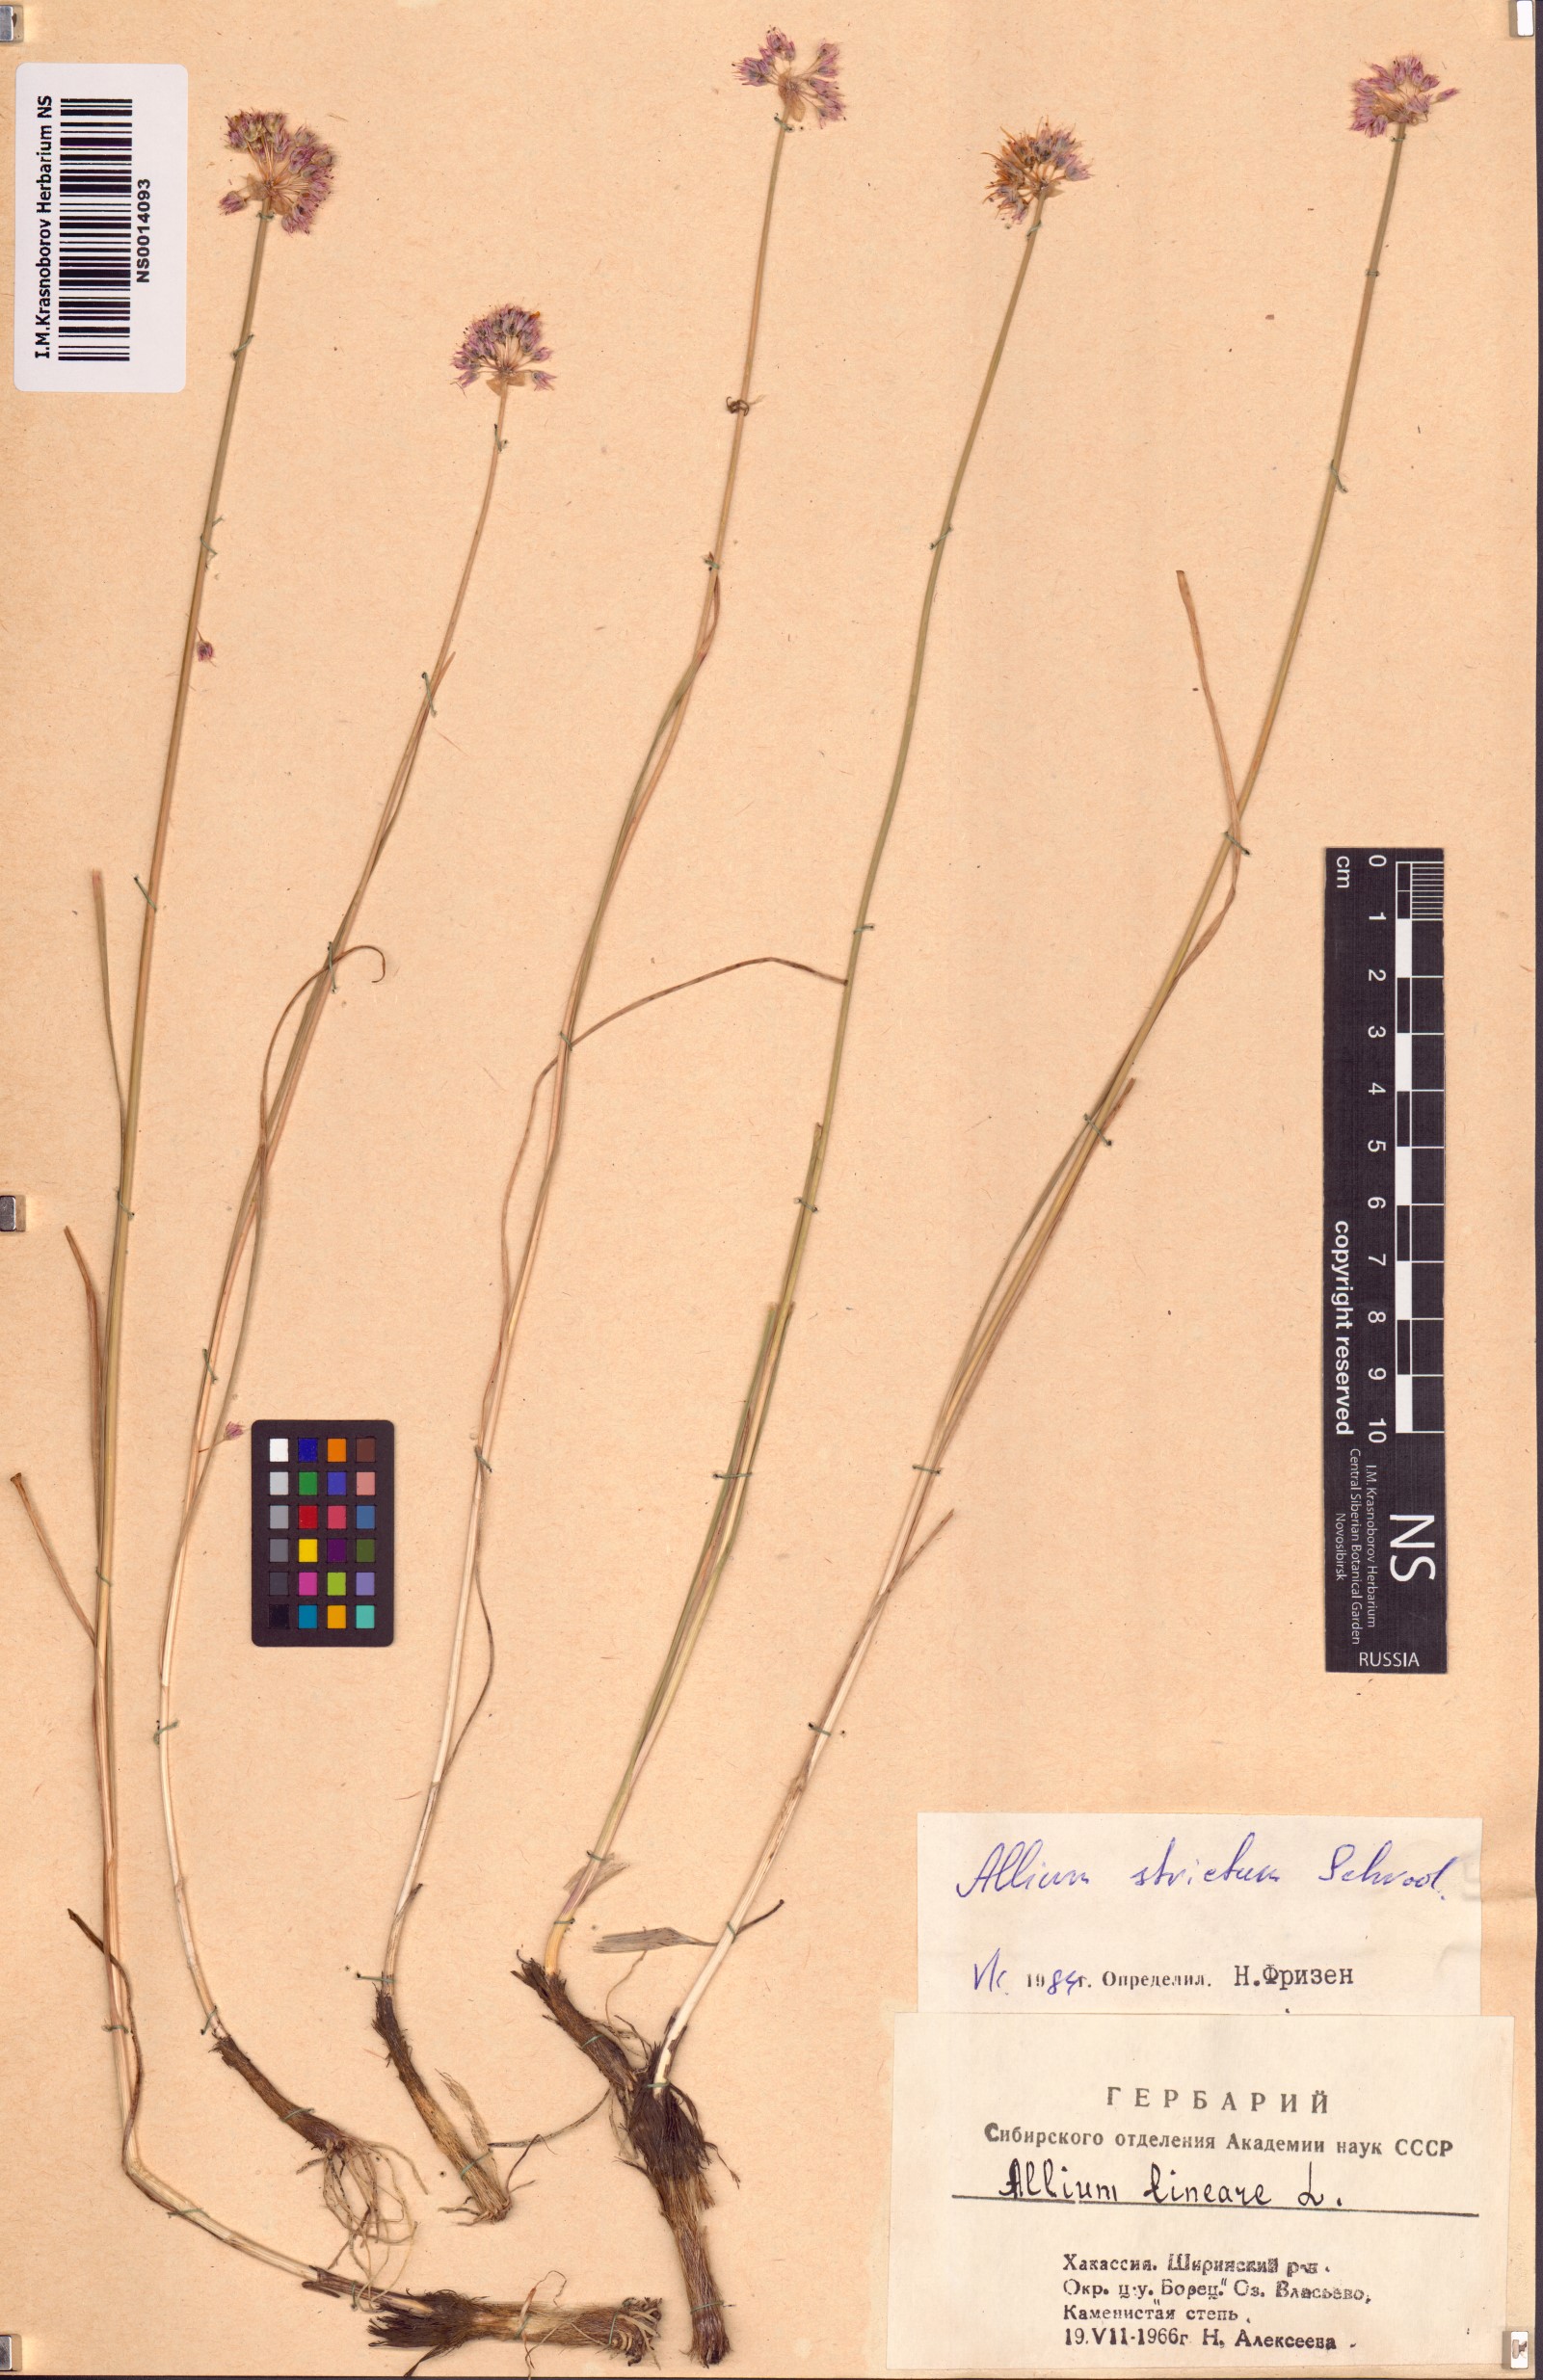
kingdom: Plantae
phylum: Tracheophyta
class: Liliopsida
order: Asparagales
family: Amaryllidaceae
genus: Allium
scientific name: Allium strictum
